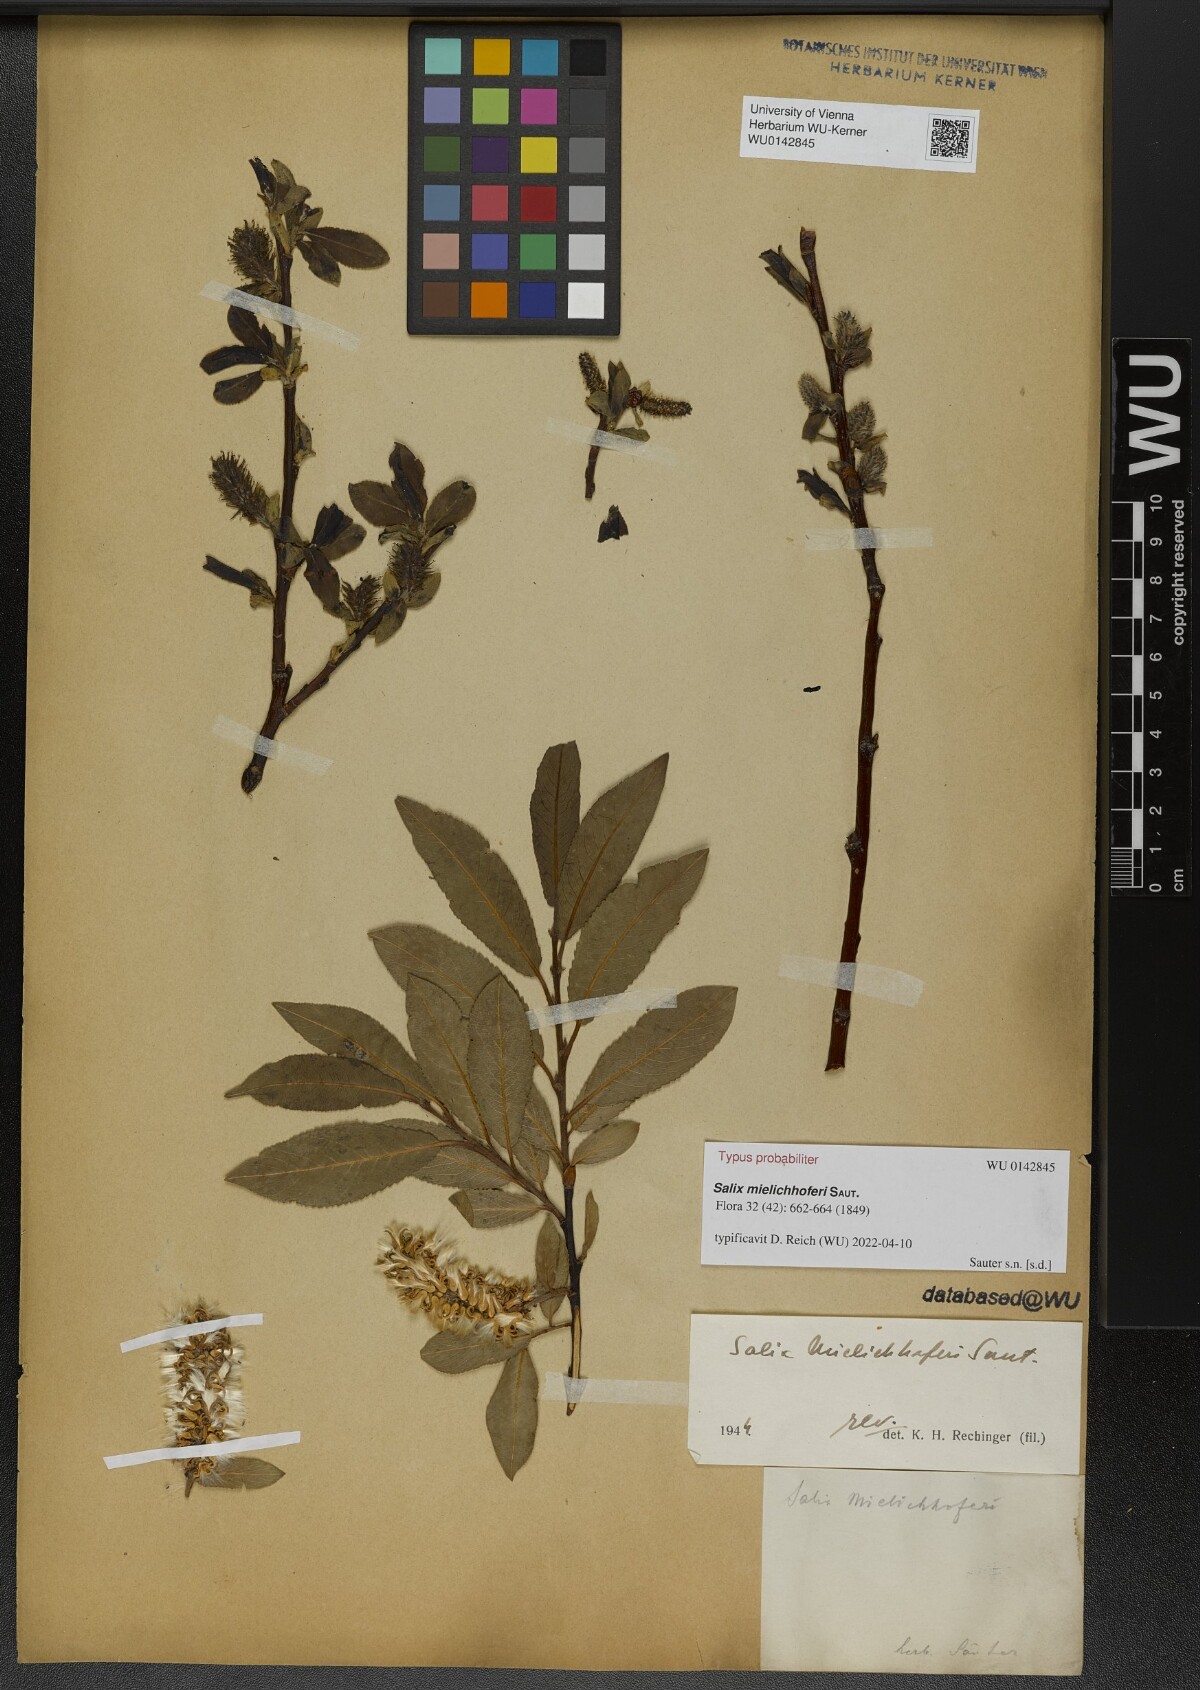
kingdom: Plantae
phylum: Tracheophyta
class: Magnoliopsida
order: Malpighiales
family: Salicaceae
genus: Salix
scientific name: Salix mielichhoferi
